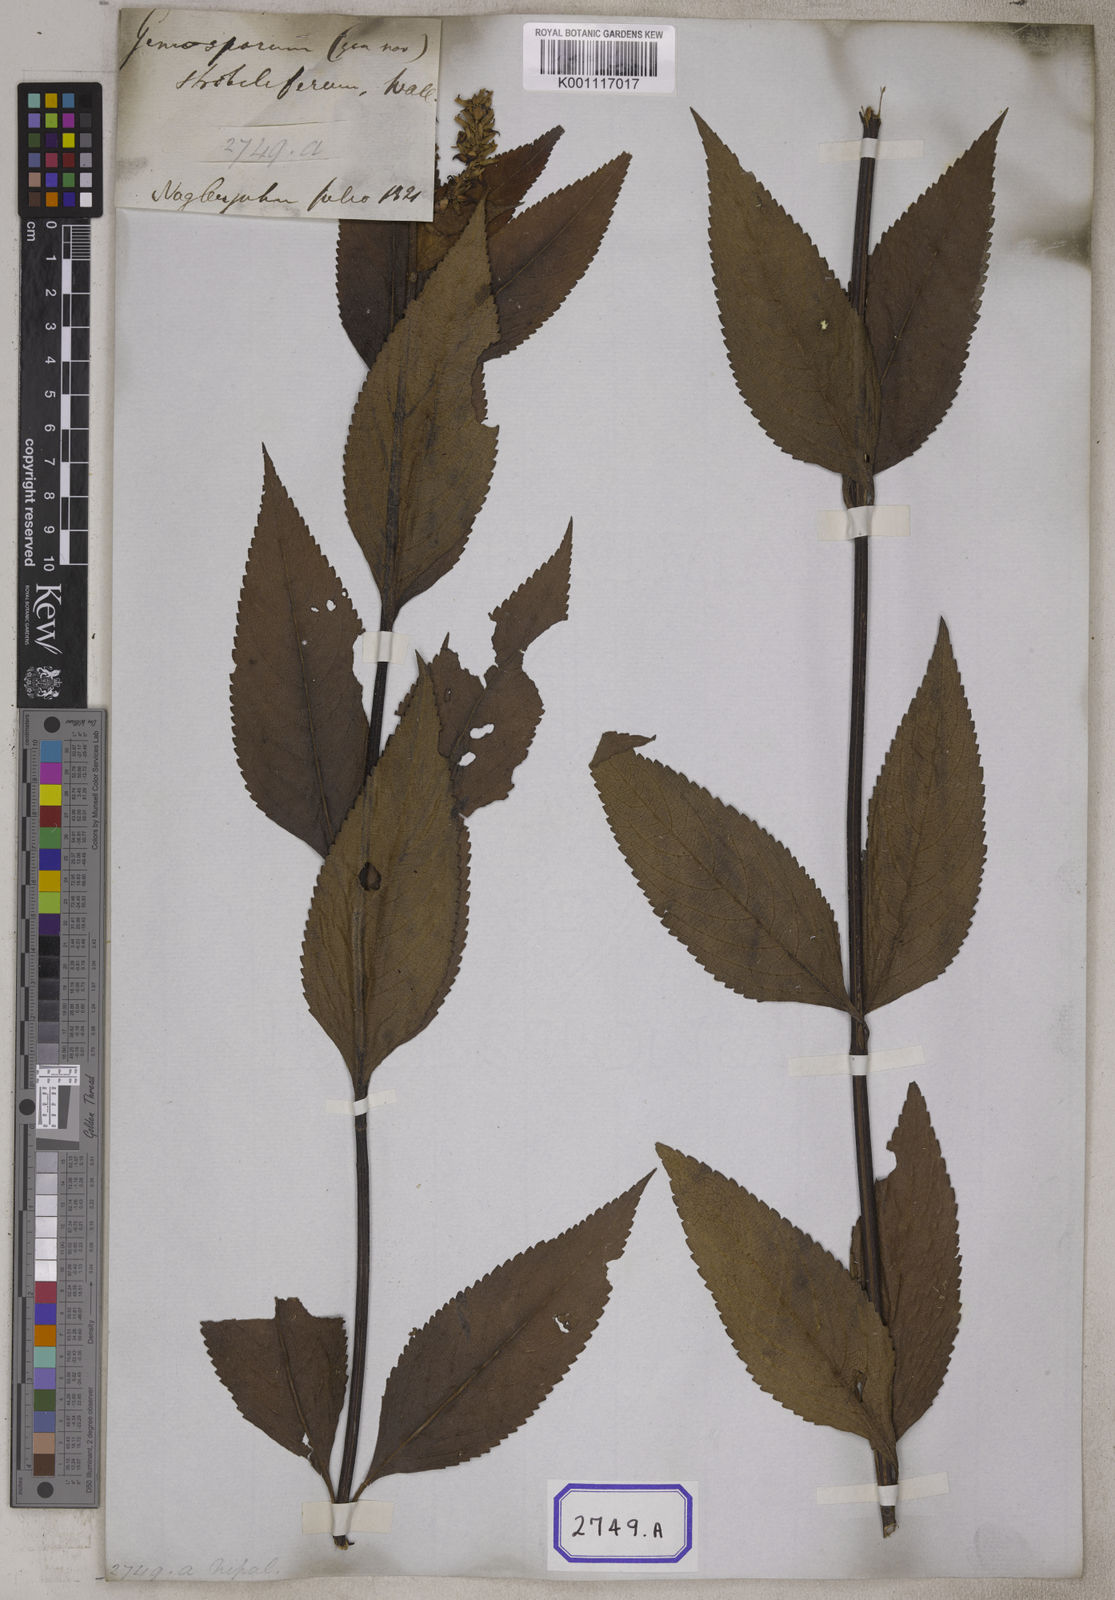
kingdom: Plantae
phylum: Tracheophyta
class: Magnoliopsida
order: Lamiales
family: Lamiaceae
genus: Platostoma
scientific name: Platostoma
